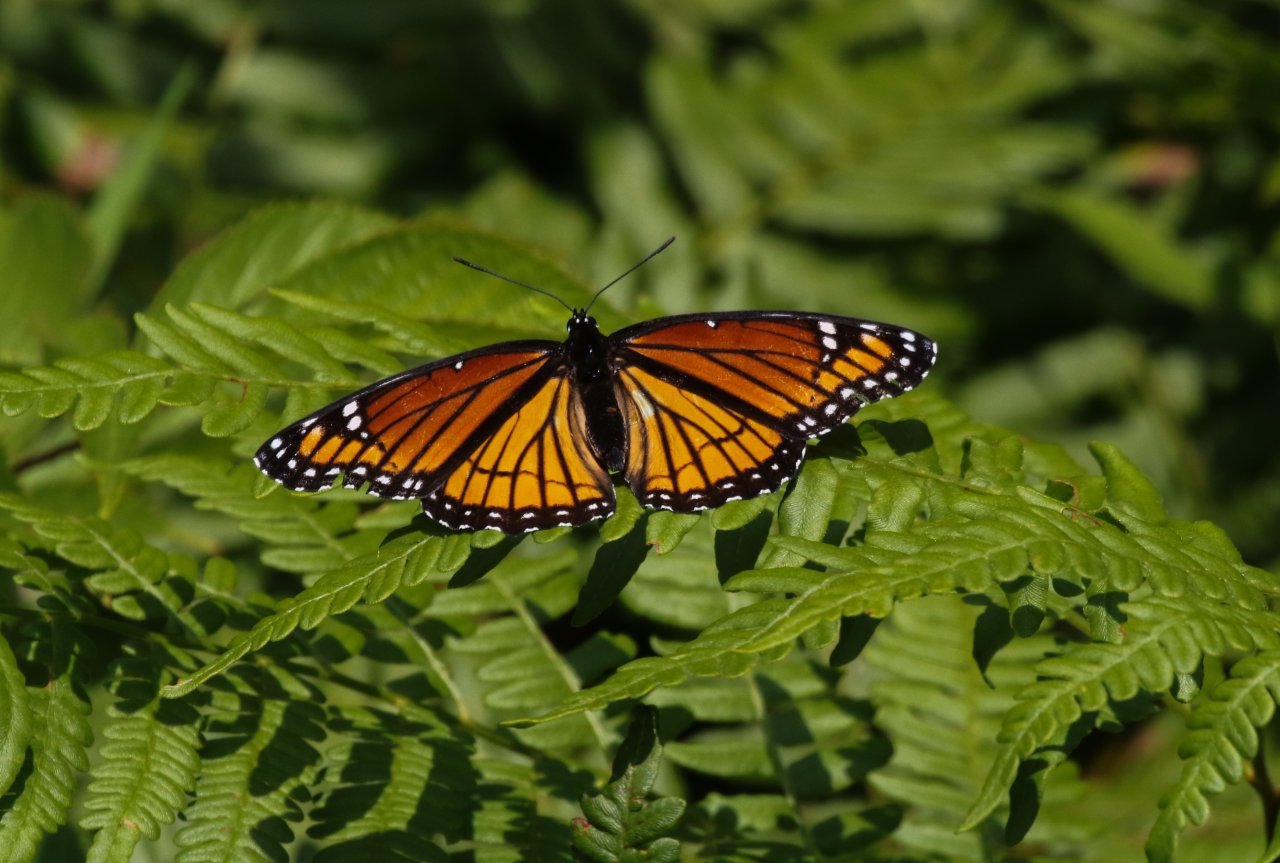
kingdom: Animalia
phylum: Arthropoda
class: Insecta
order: Lepidoptera
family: Nymphalidae
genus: Limenitis
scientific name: Limenitis archippus
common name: Viceroy
